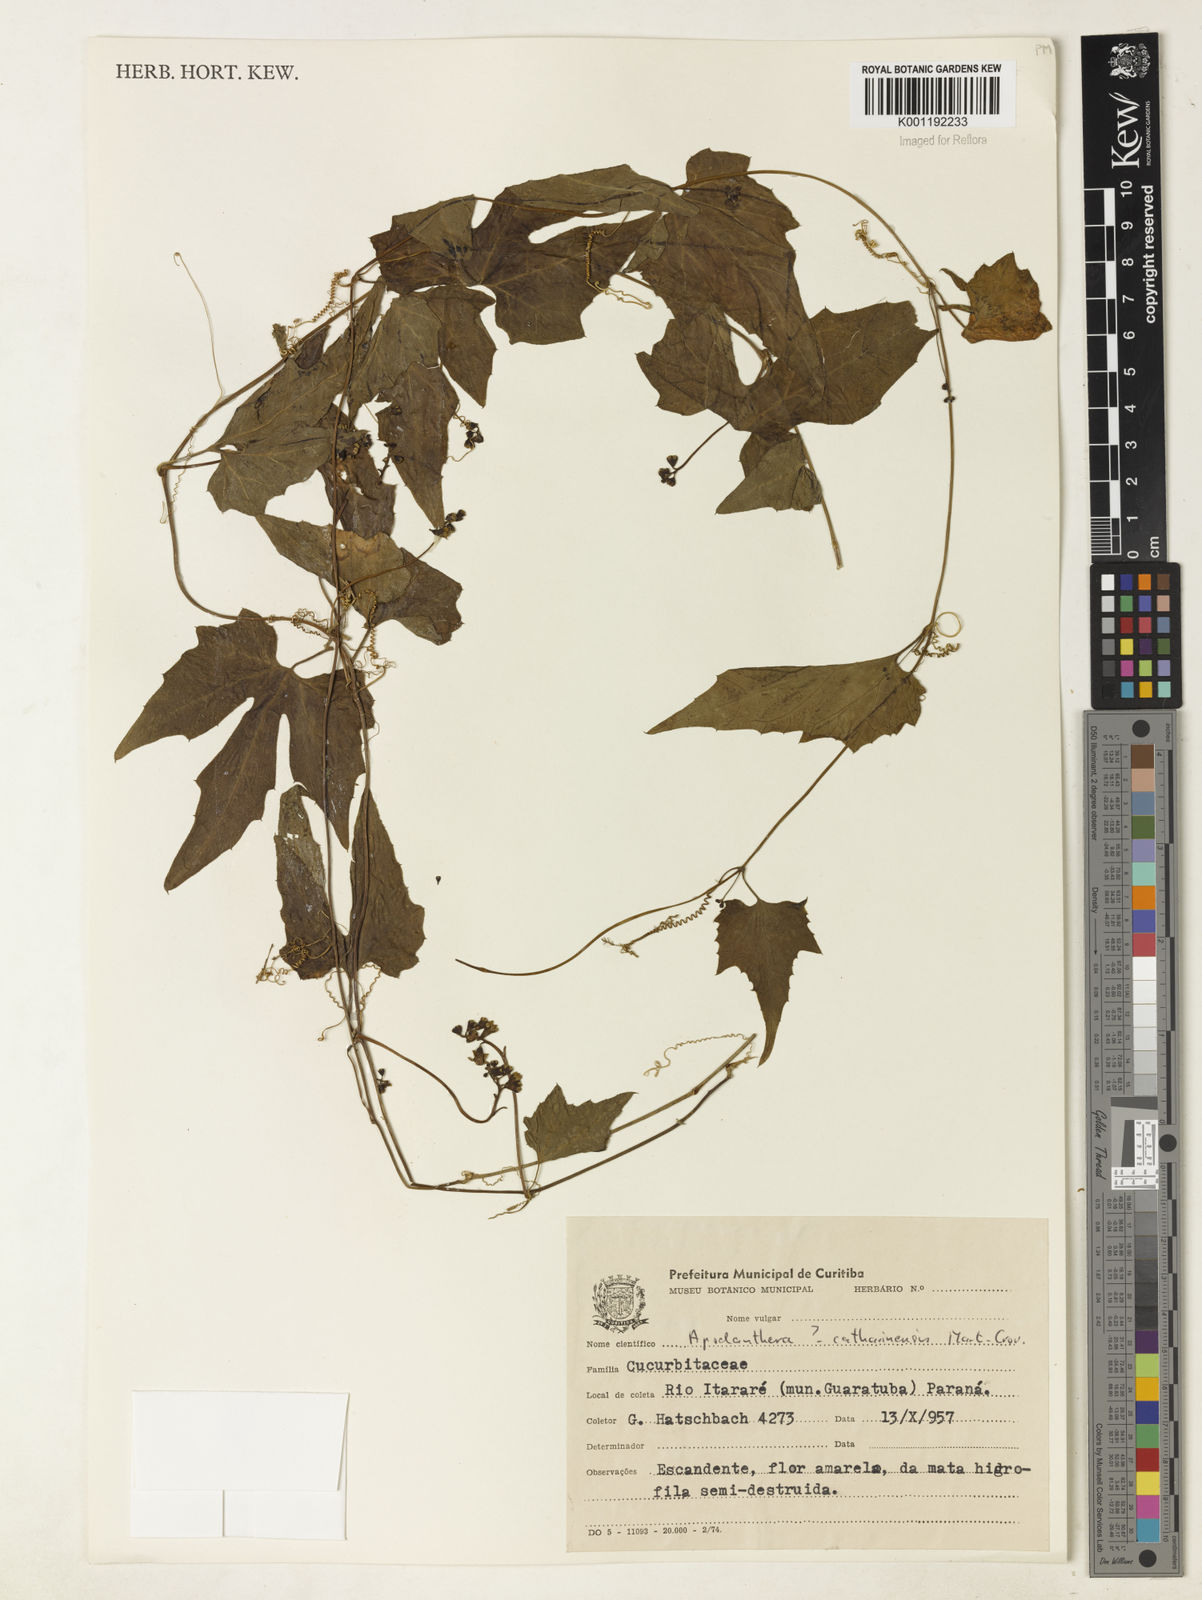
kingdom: Plantae
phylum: Tracheophyta
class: Magnoliopsida
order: Cucurbitales
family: Cucurbitaceae
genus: Apodanthera
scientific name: Apodanthera catharinensis
